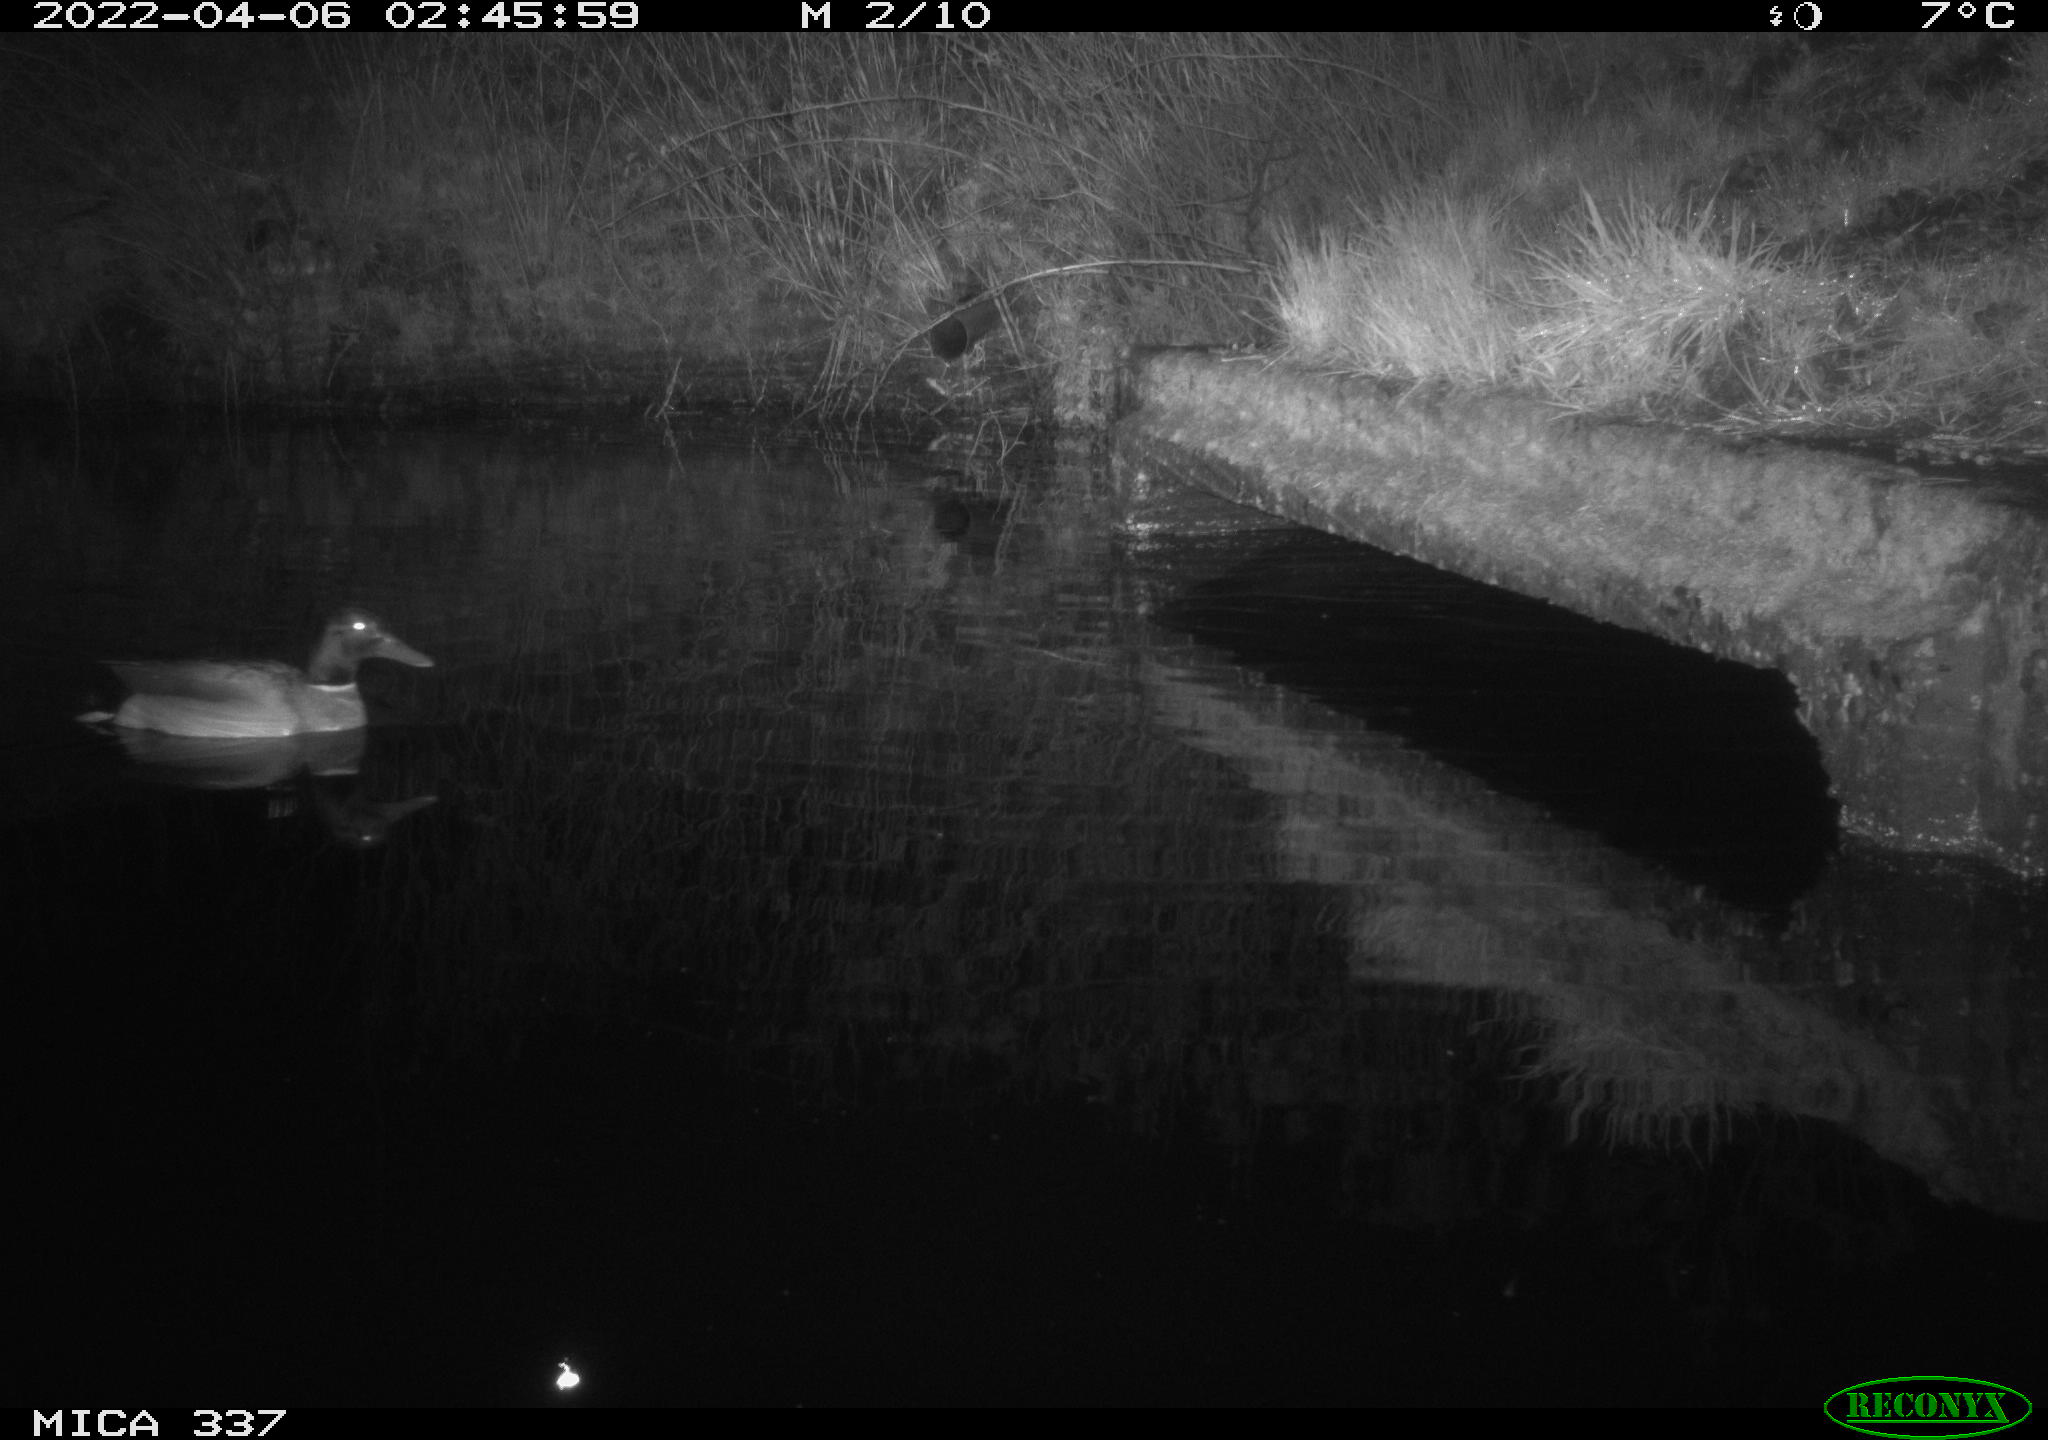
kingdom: Animalia
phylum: Chordata
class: Aves
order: Anseriformes
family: Anatidae
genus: Anas
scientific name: Anas platyrhynchos
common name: Mallard
